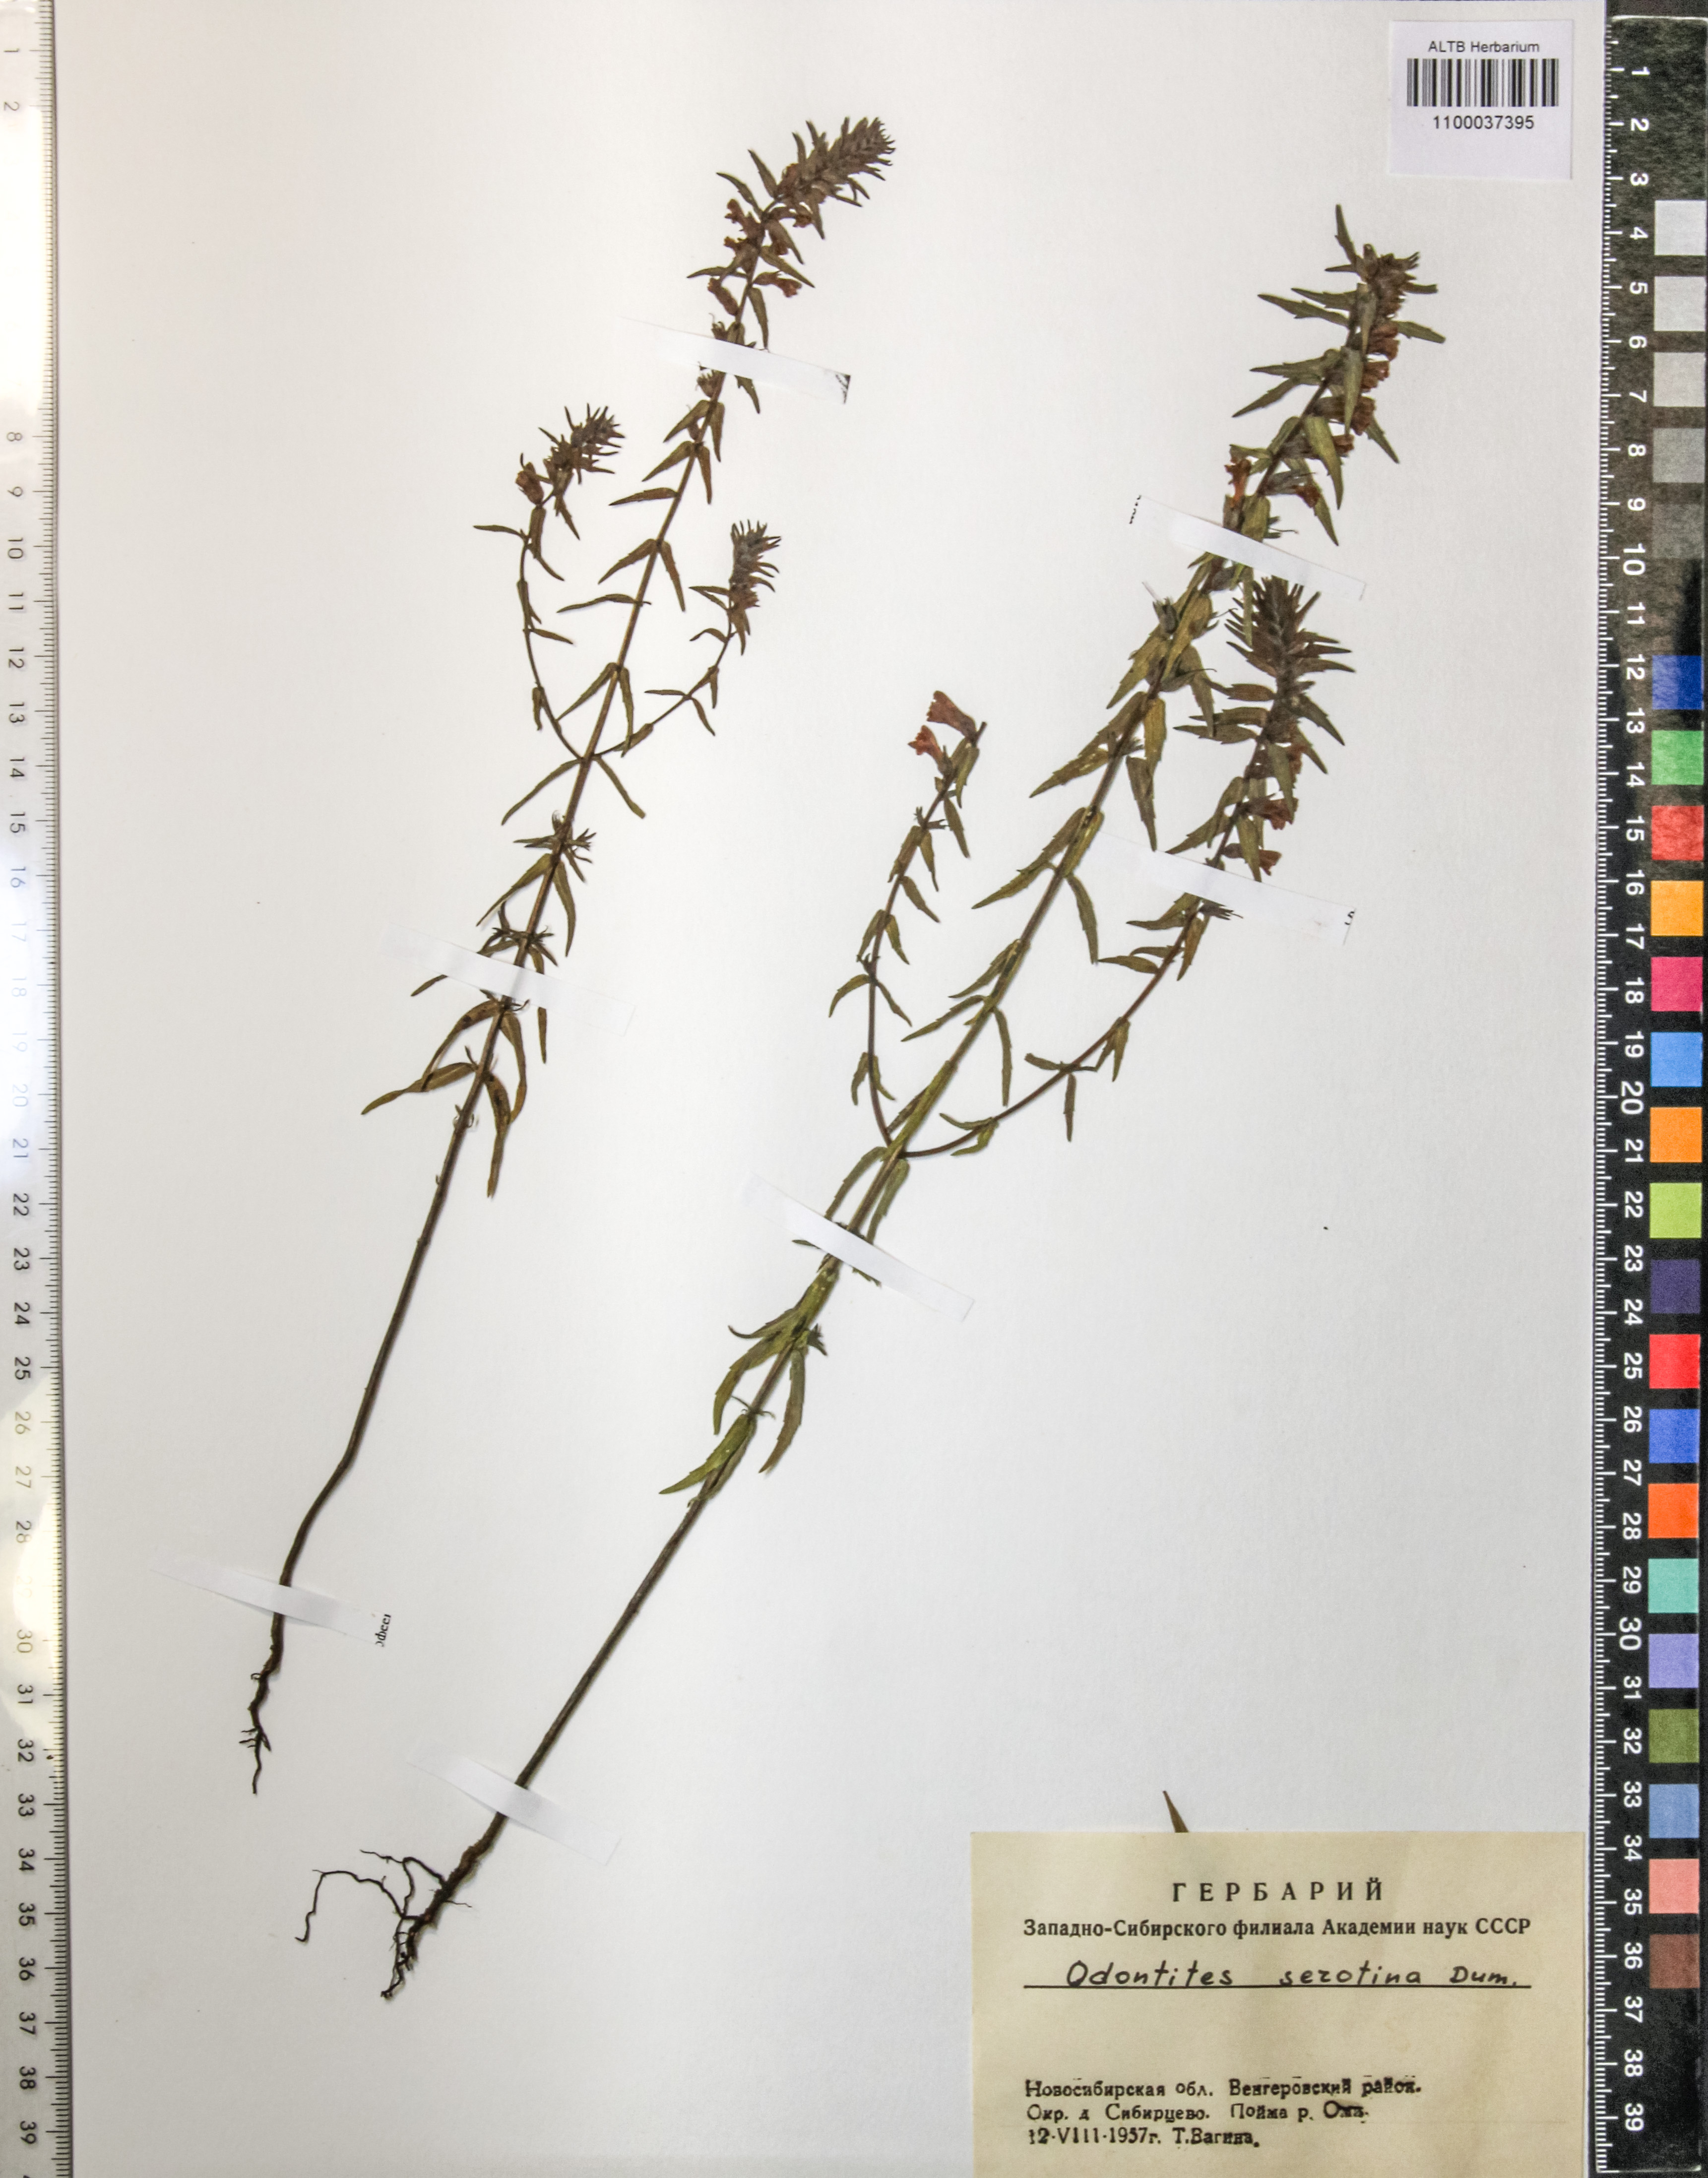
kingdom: Plantae
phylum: Tracheophyta
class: Magnoliopsida
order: Lamiales
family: Orobanchaceae
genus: Odontites
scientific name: Odontites vulgaris
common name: Broomrape
